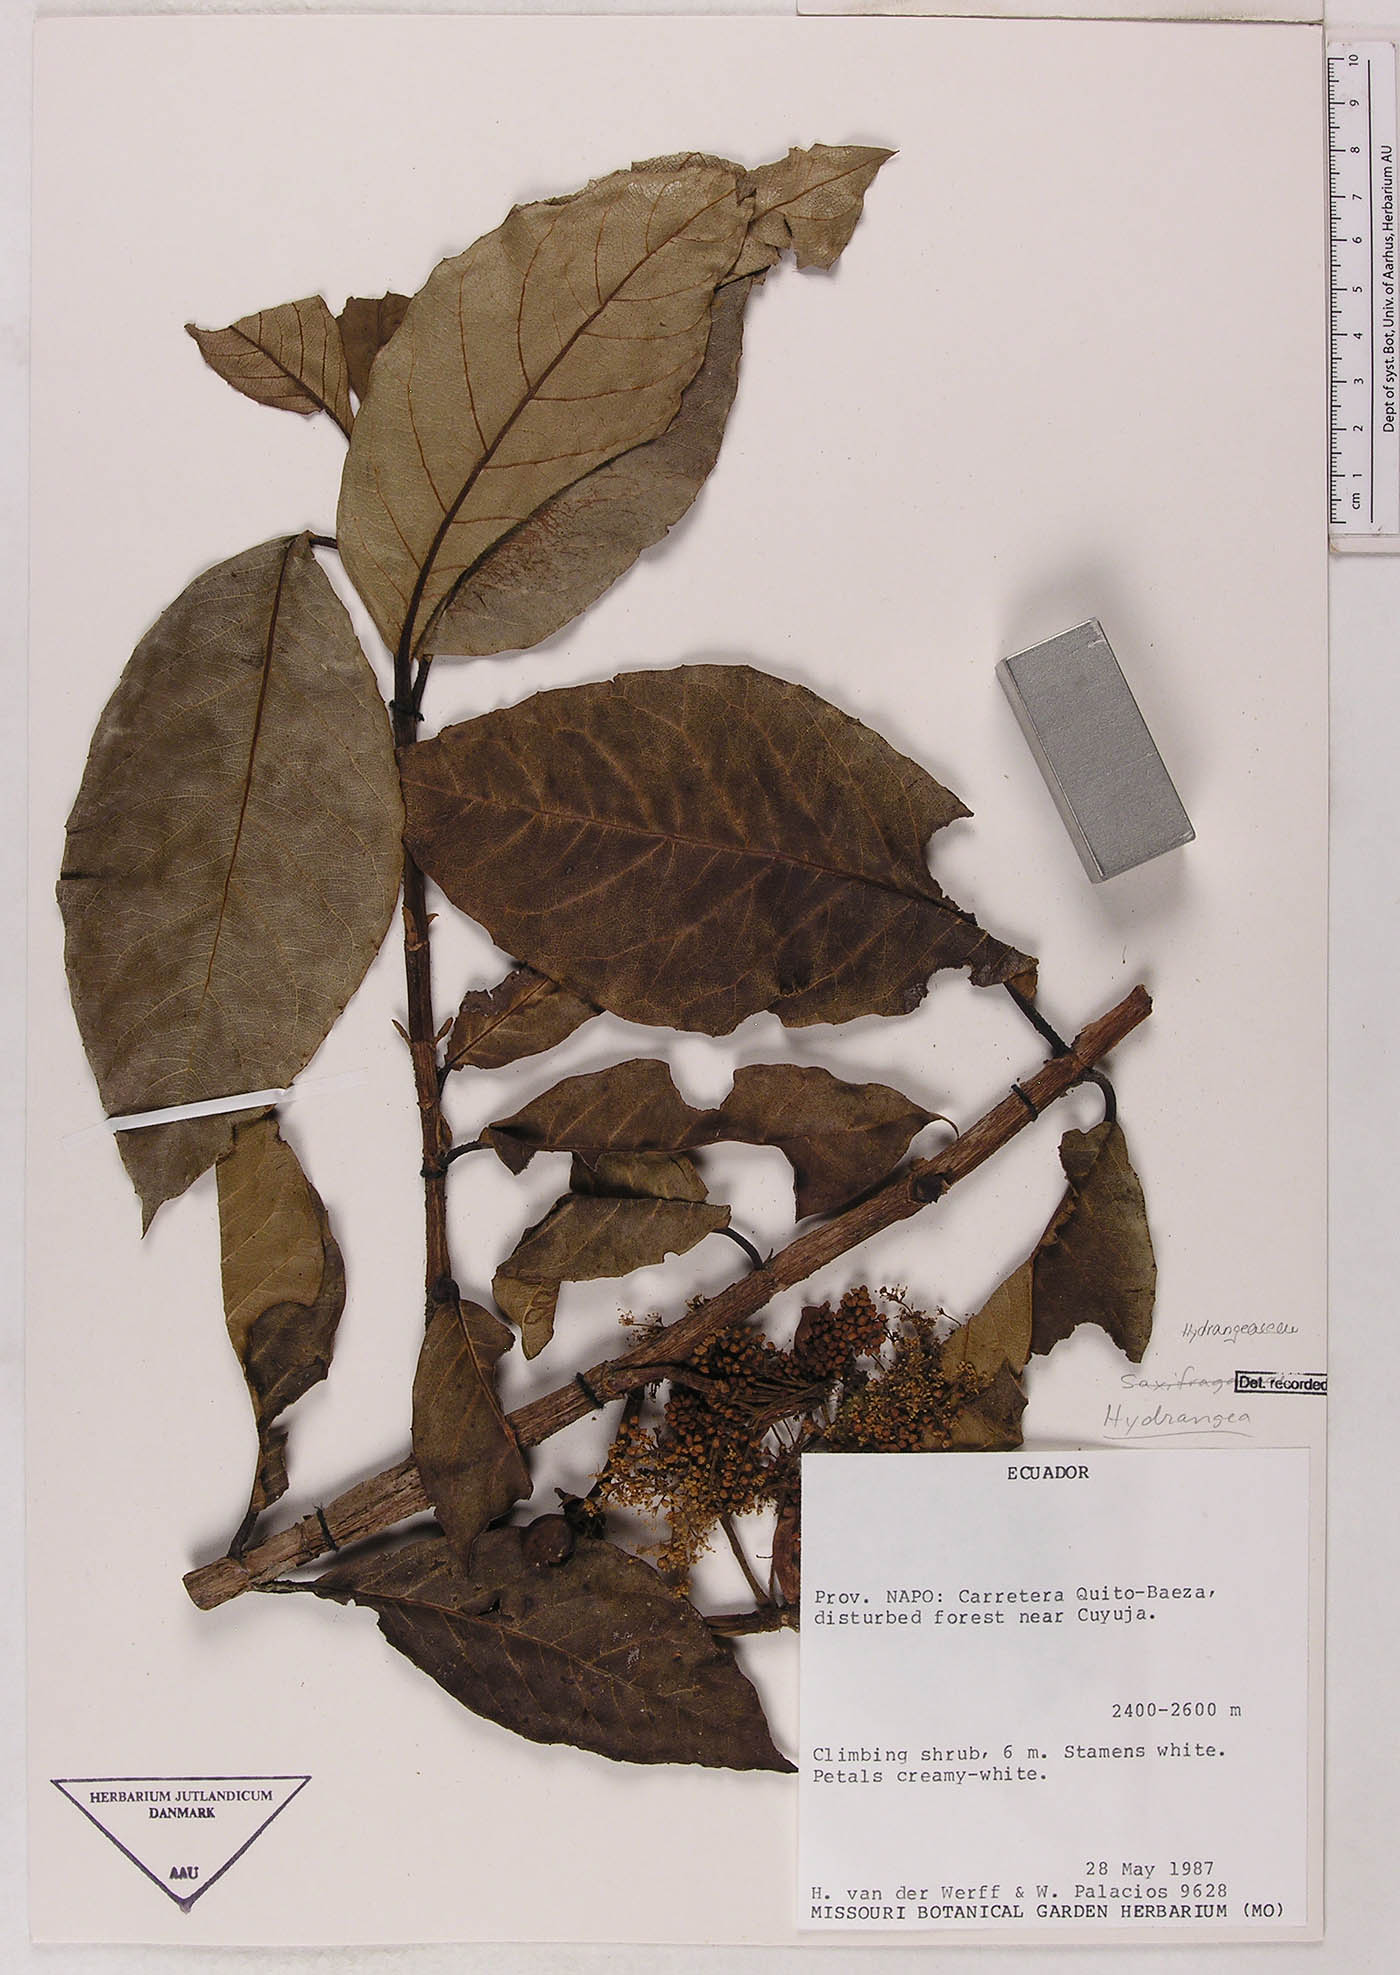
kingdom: Plantae
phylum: Tracheophyta
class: Magnoliopsida
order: Cornales
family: Hydrangeaceae
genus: Hydrangea
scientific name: Hydrangea
